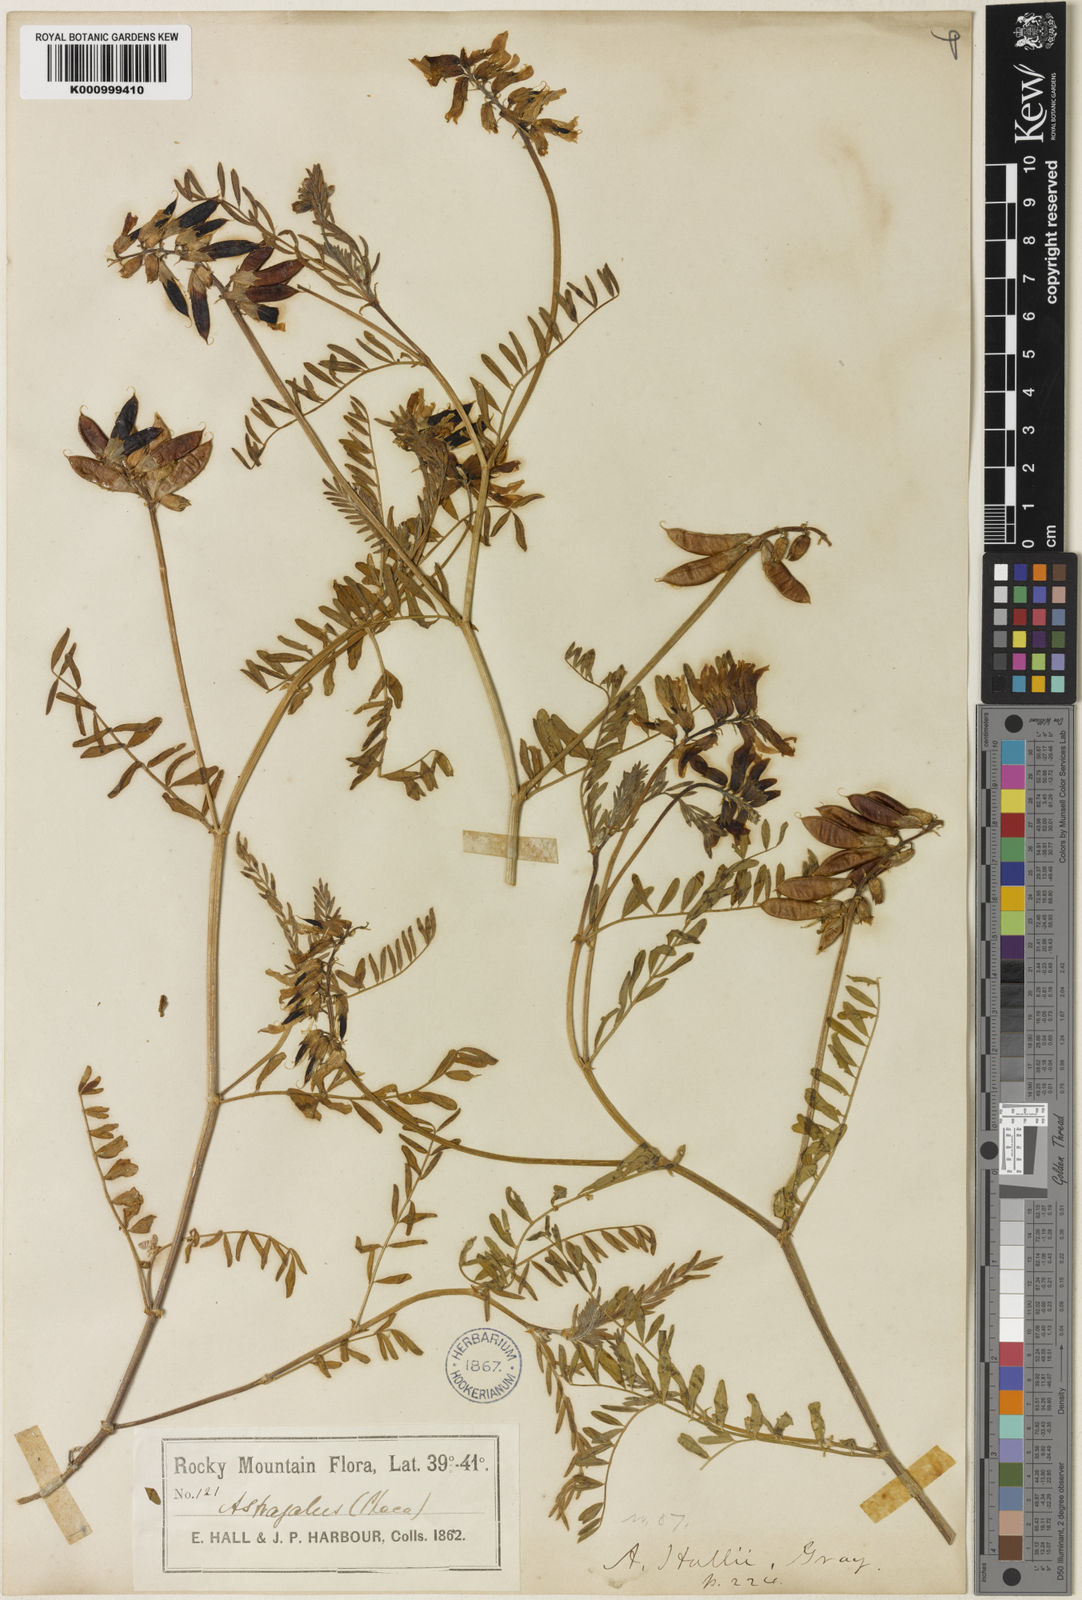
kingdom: Plantae
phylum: Tracheophyta
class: Magnoliopsida
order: Fabales
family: Fabaceae
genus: Astragalus
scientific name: Astragalus hallii
